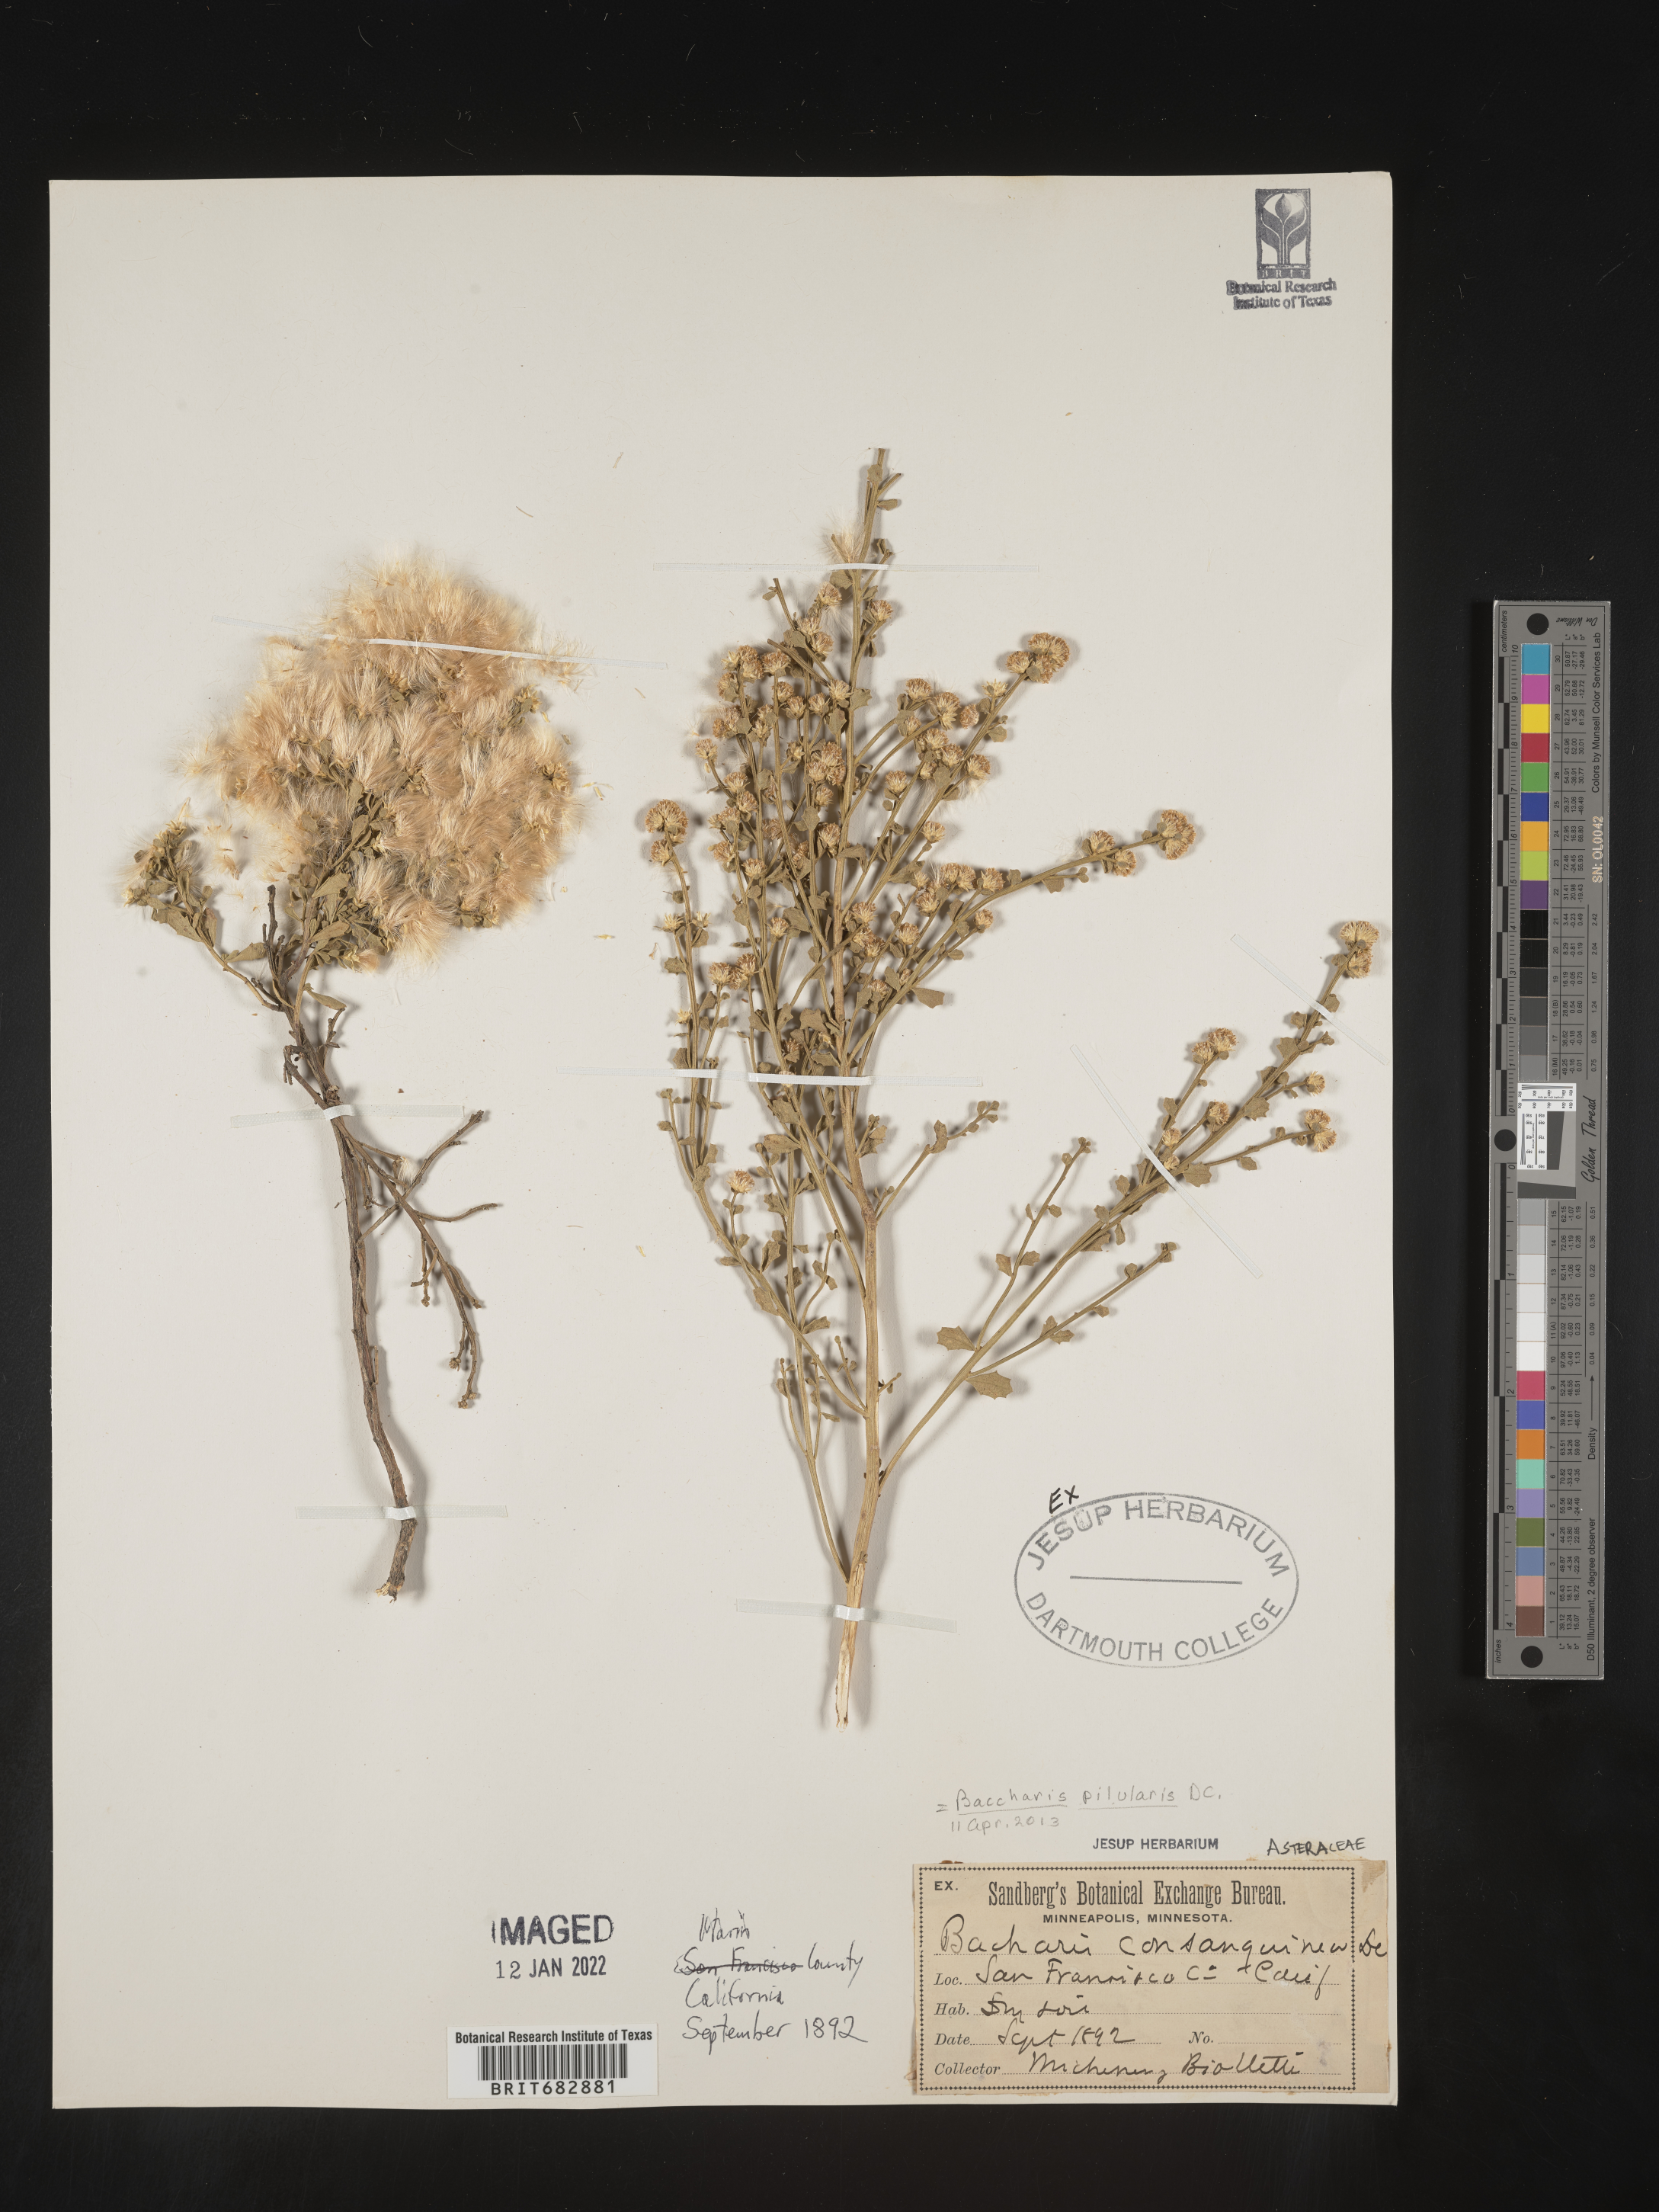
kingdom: Plantae
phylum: Tracheophyta
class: Magnoliopsida
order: Asterales
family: Asteraceae
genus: Baccharis
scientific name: Baccharis pilularis
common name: Coyotebrush
